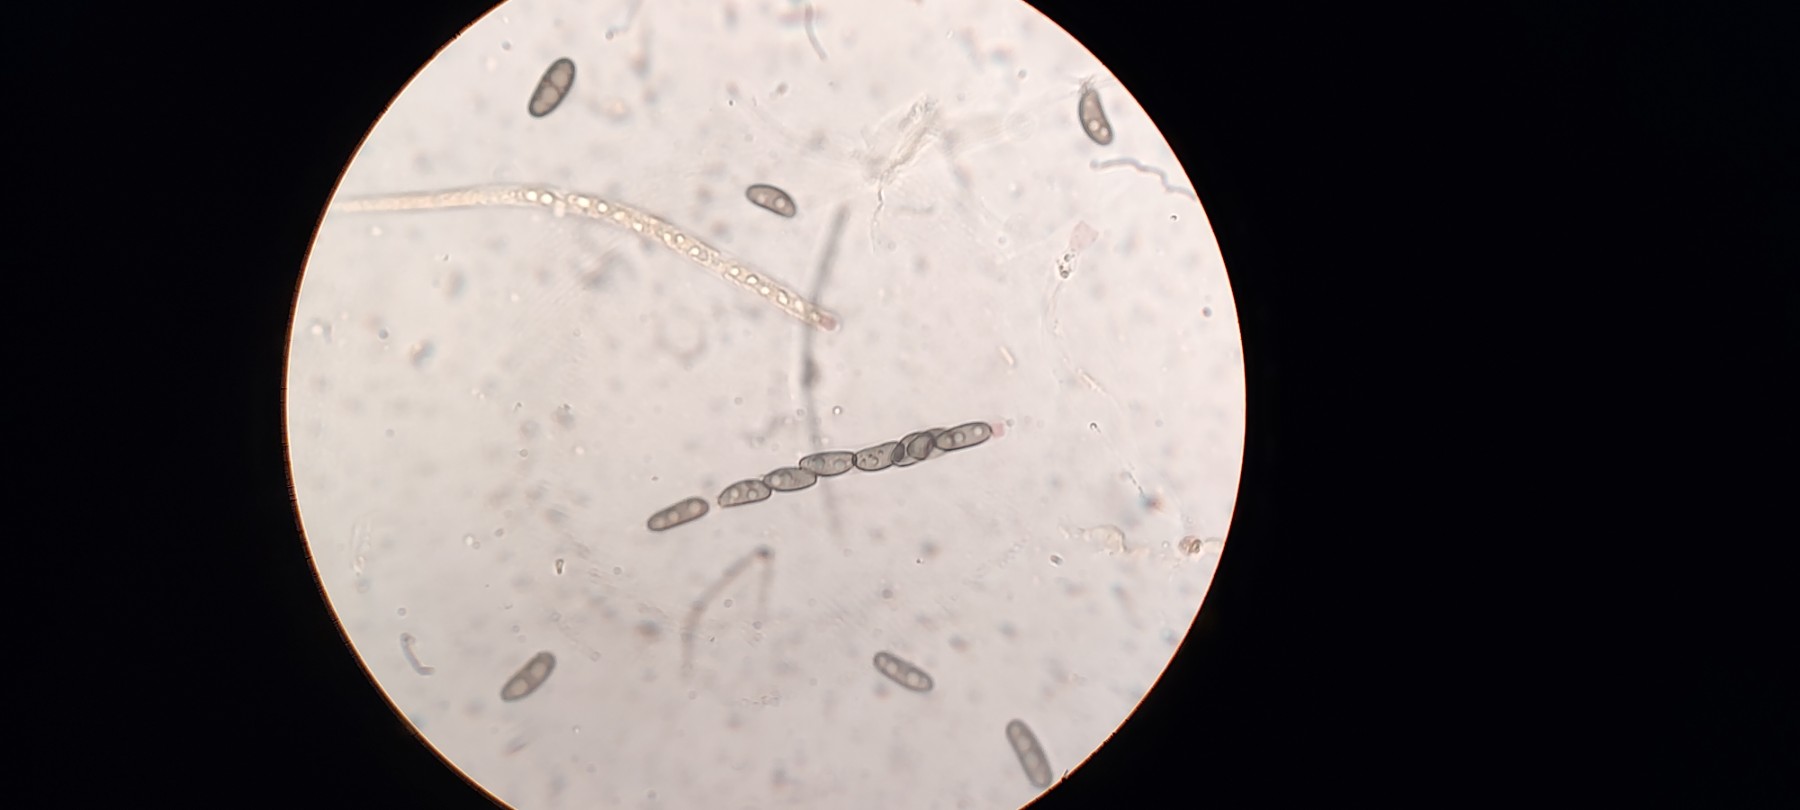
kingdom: Fungi
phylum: Ascomycota
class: Sordariomycetes
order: Xylariales
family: Xylariaceae
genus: Nemania
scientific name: Nemania serpens
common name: almindelig kuldyne
